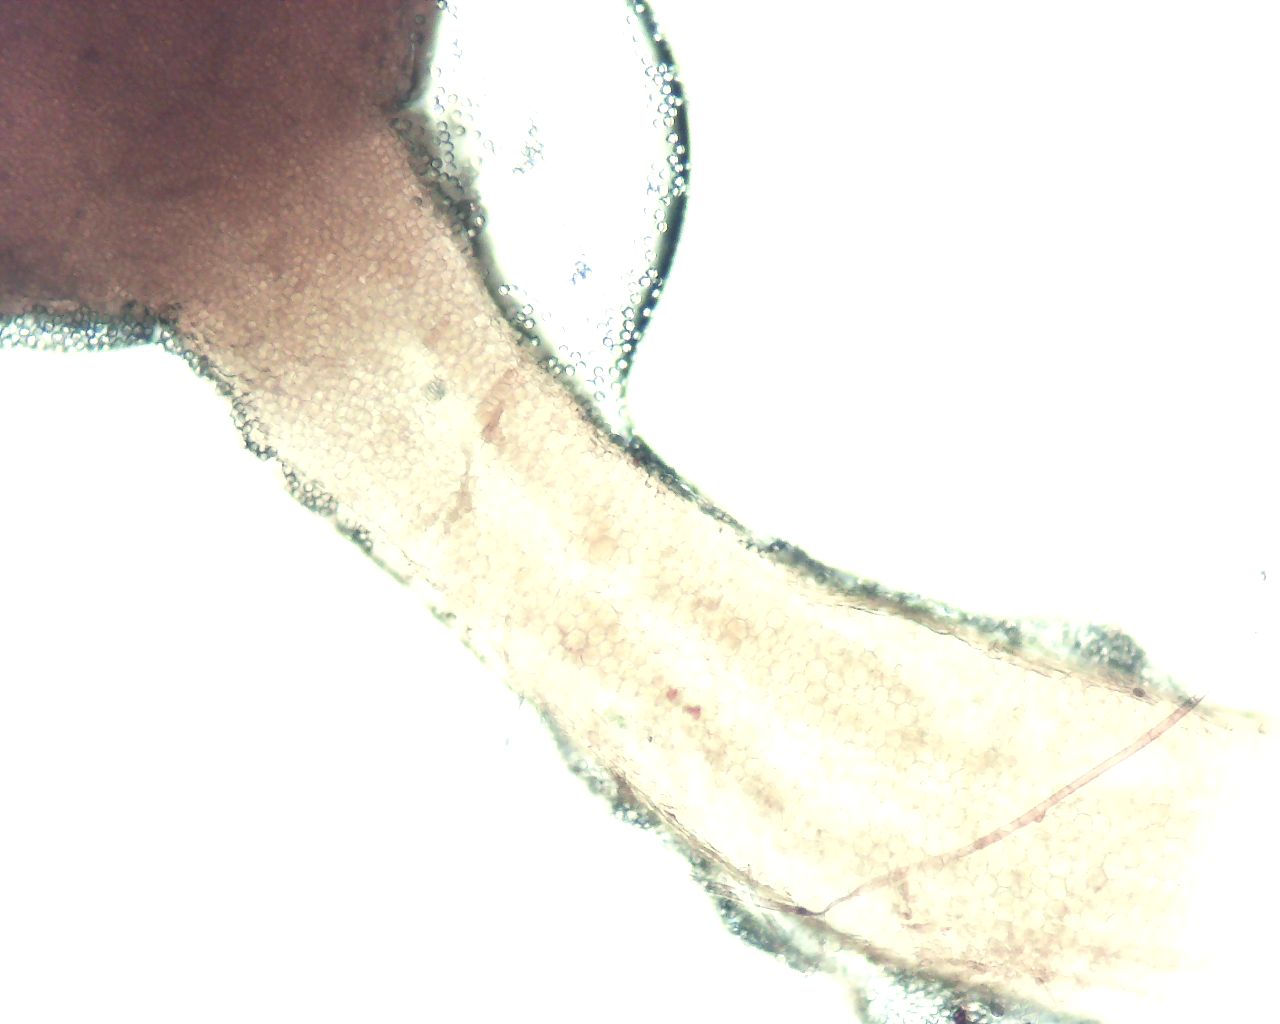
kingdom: Protozoa
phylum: Amoebozoa
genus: Arcyria
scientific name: Arcyria
